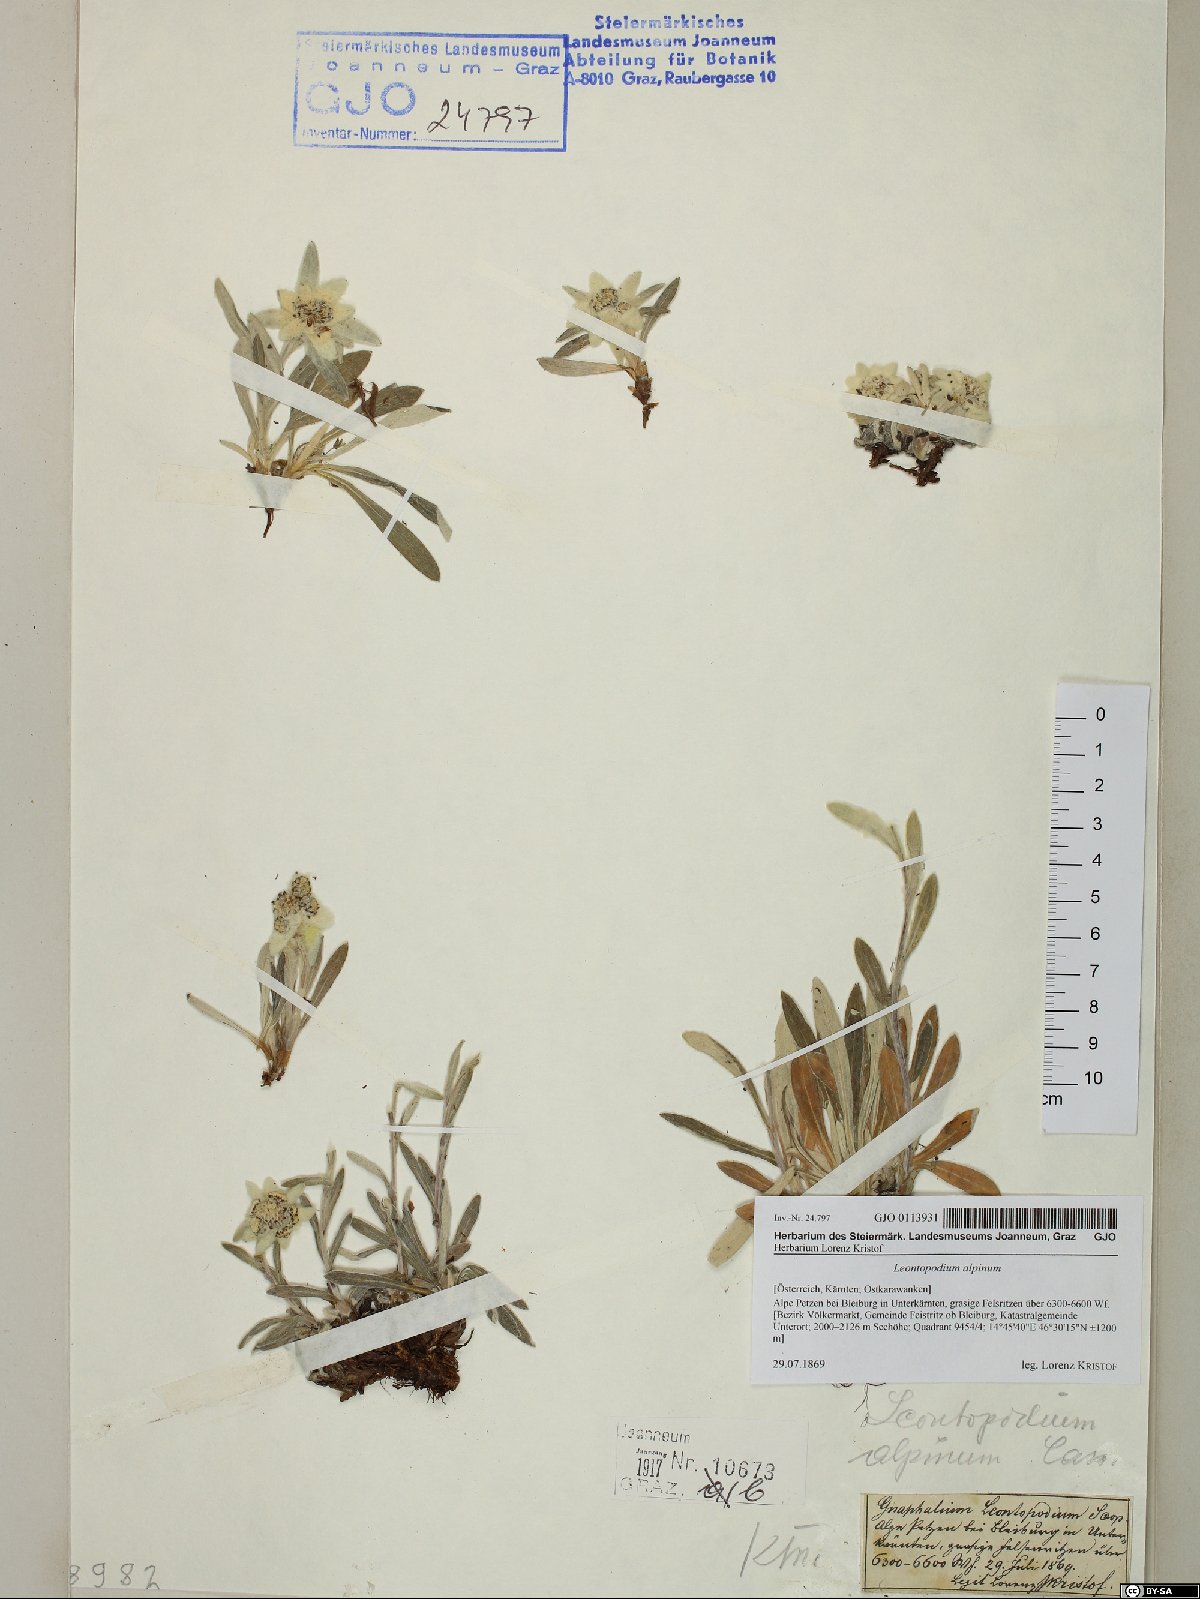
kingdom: Plantae
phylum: Tracheophyta
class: Magnoliopsida
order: Asterales
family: Asteraceae
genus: Leontopodium
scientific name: Leontopodium nivale
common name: Edelweiss
